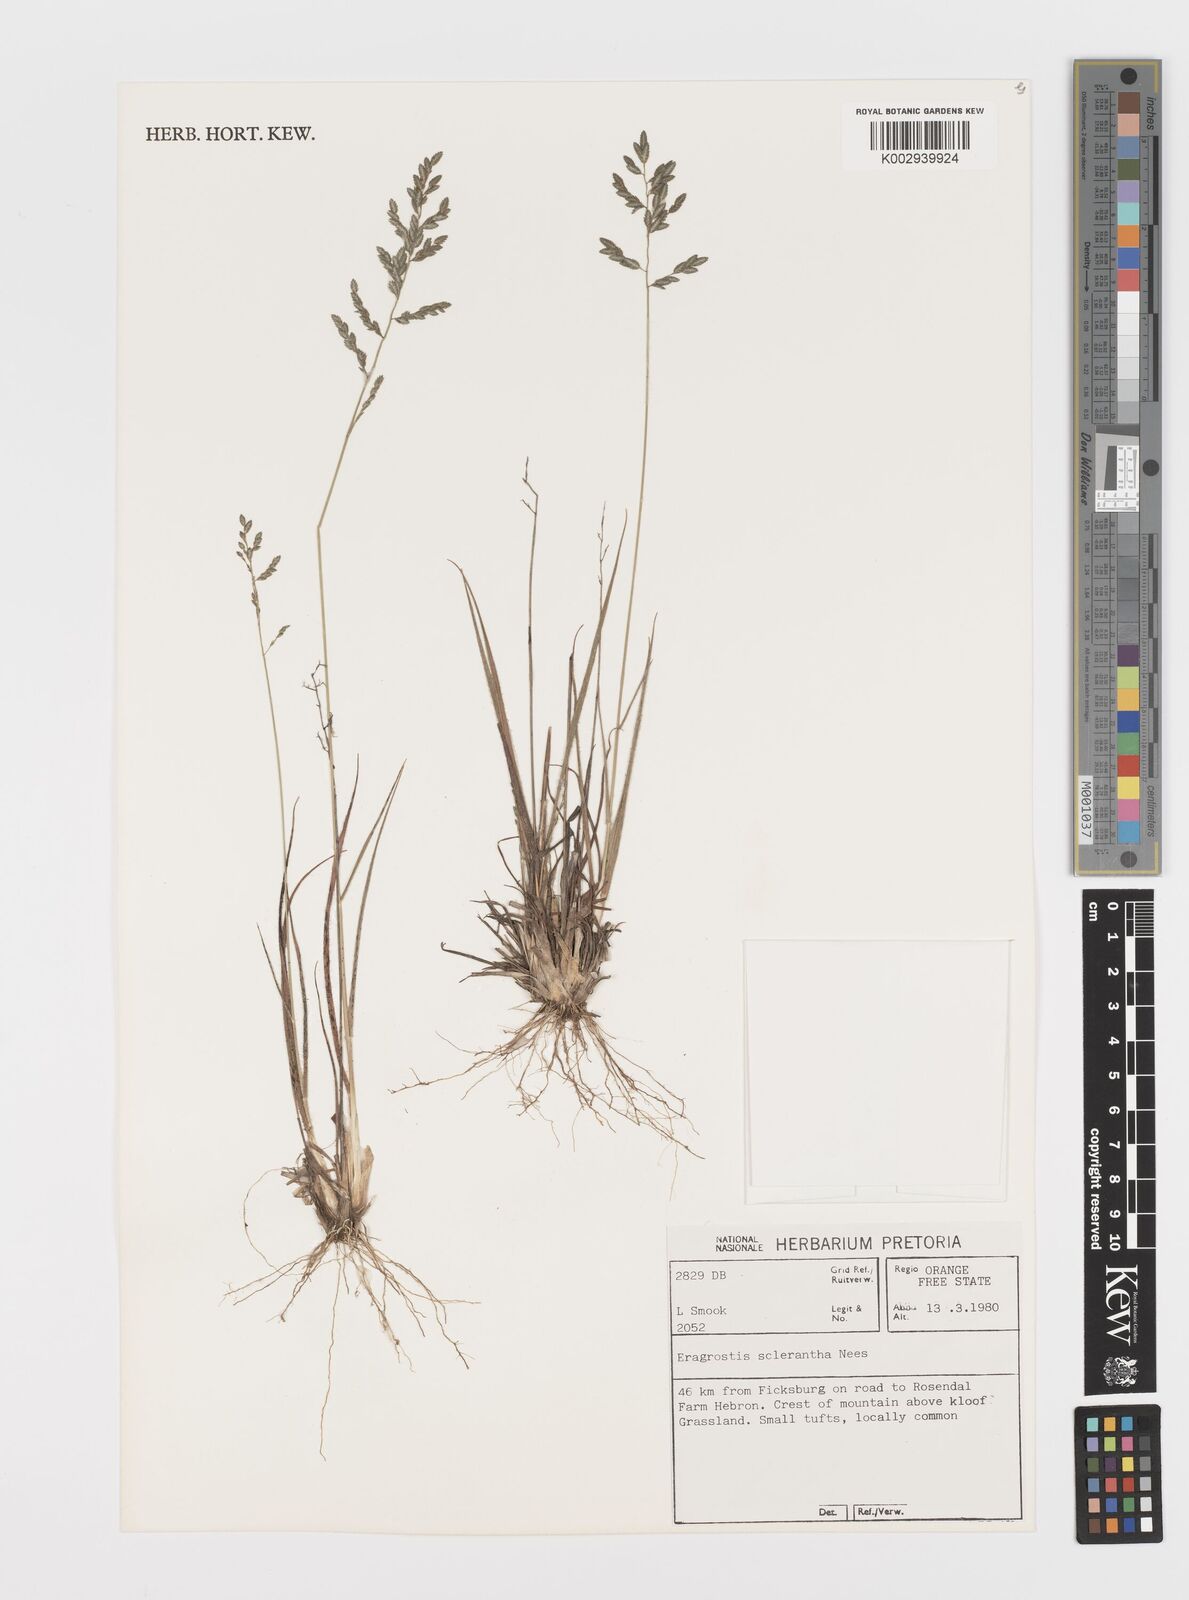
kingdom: Plantae
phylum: Tracheophyta
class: Liliopsida
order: Poales
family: Poaceae
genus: Eragrostis
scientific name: Eragrostis sclerantha
